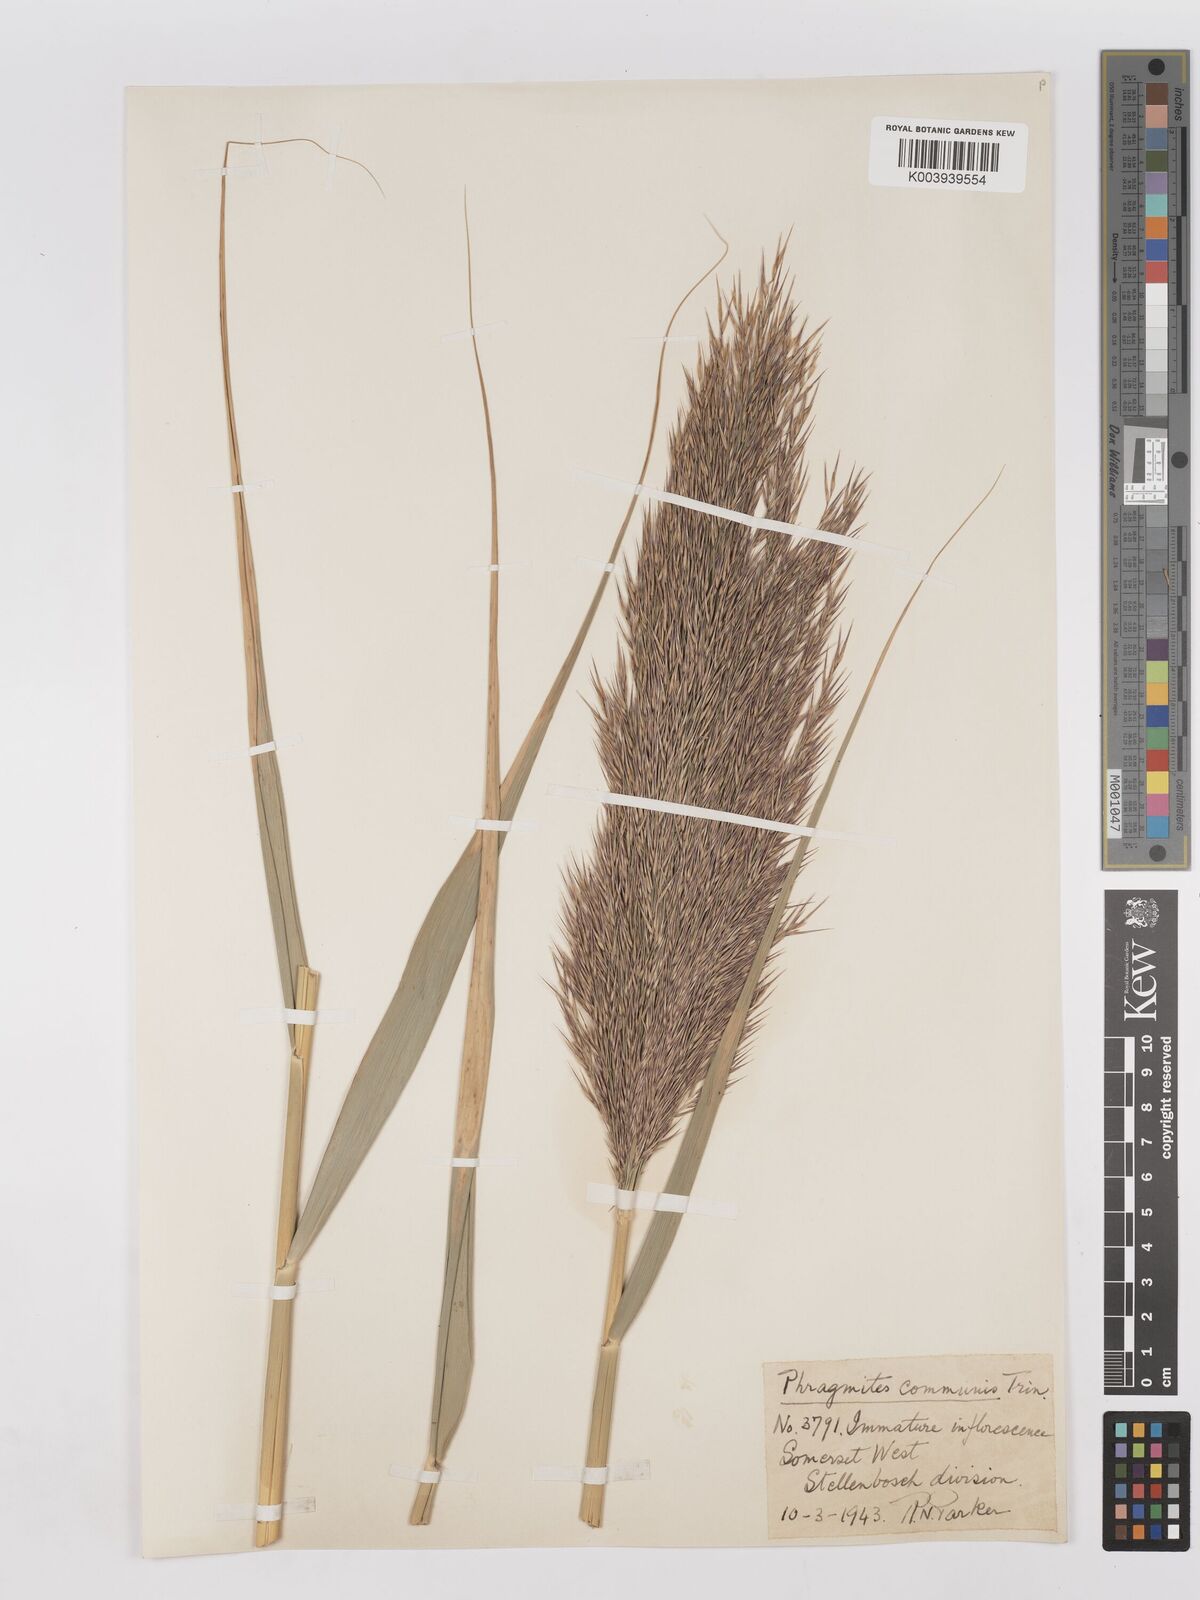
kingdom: Plantae
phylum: Tracheophyta
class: Liliopsida
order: Poales
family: Poaceae
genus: Phragmites
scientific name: Phragmites australis
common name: Common reed
